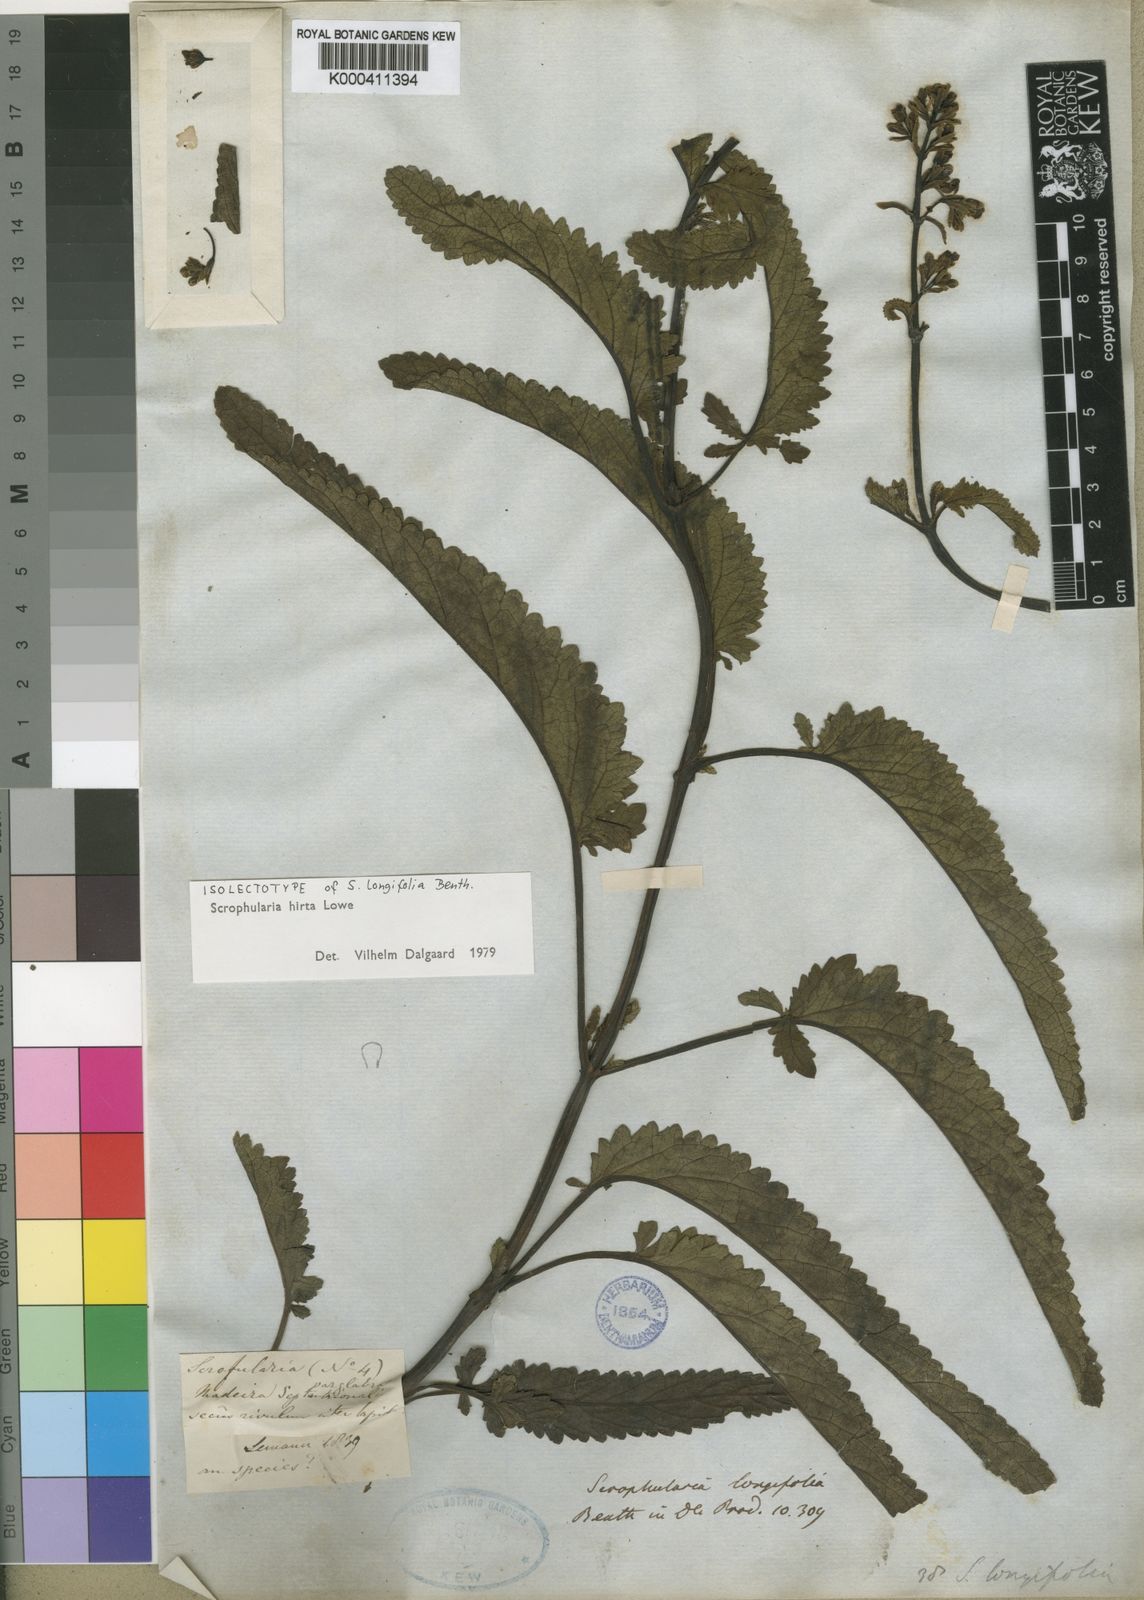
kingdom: Plantae
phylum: Tracheophyta
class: Magnoliopsida
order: Lamiales
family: Scrophulariaceae
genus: Scrophularia
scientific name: Scrophularia hirta
